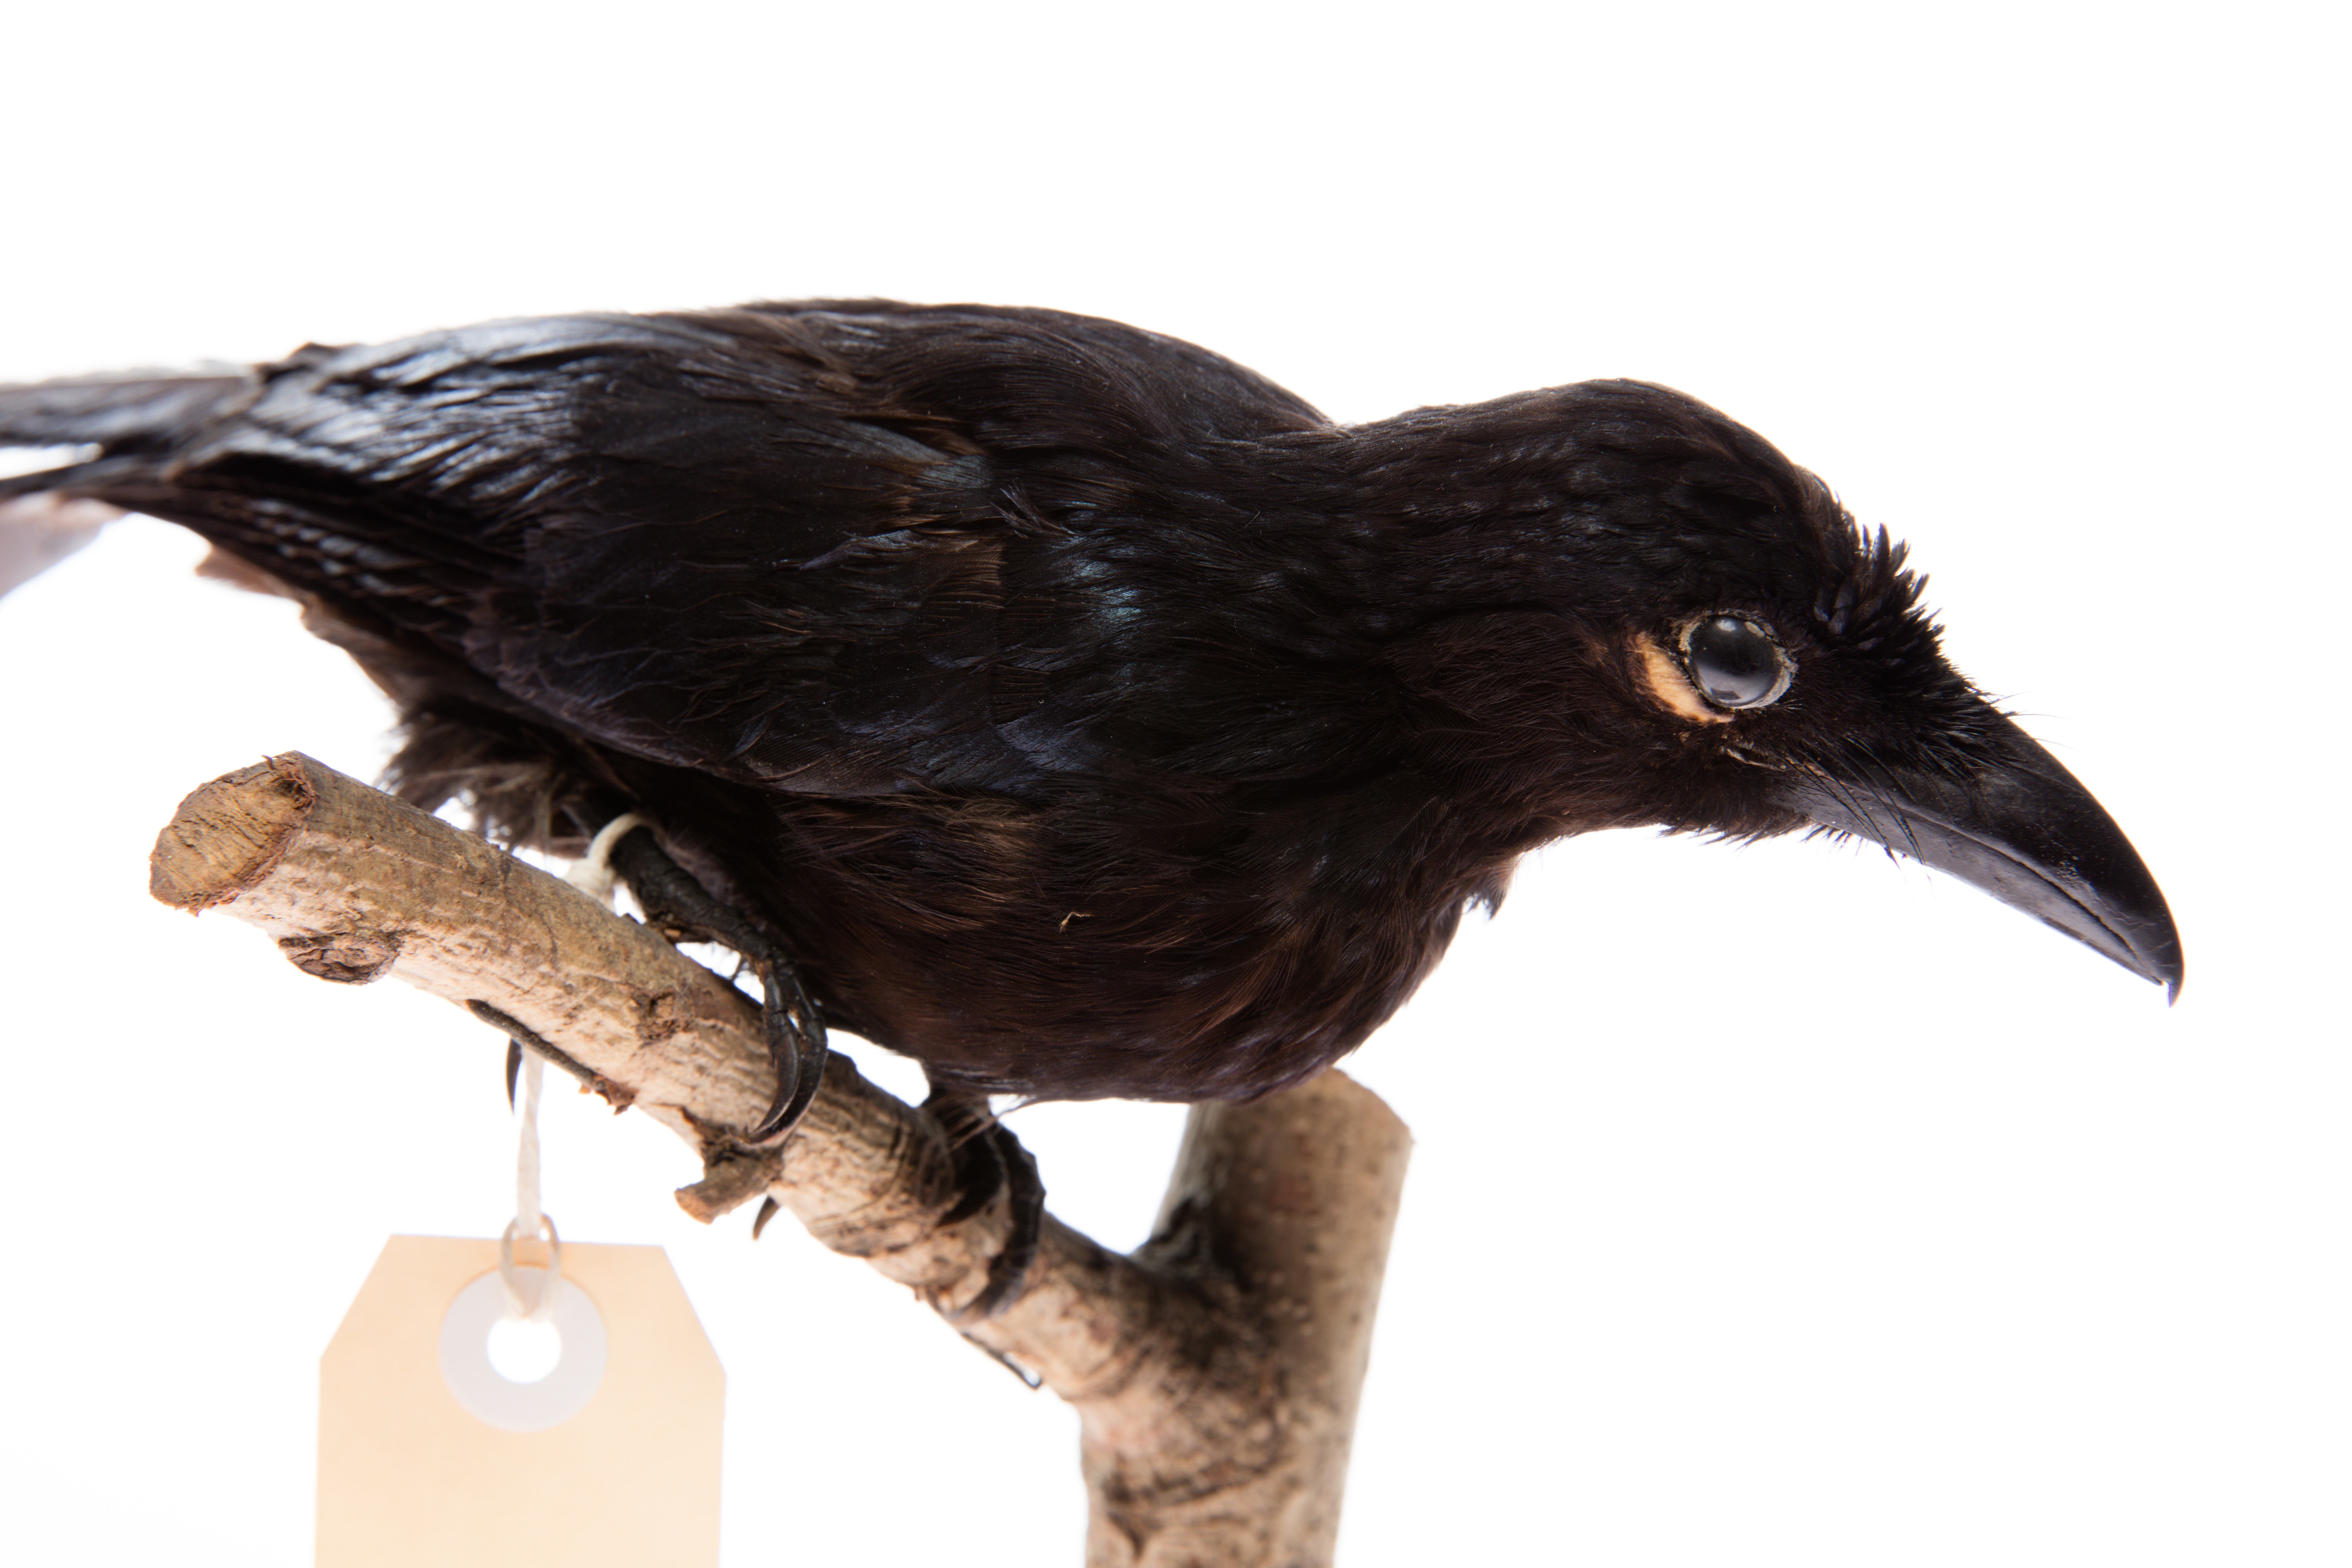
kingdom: Animalia
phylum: Chordata
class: Aves
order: Passeriformes
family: Dicruridae
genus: Dicrurus
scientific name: Dicrurus megarhynchus
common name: Ribbon-tailed drongo
